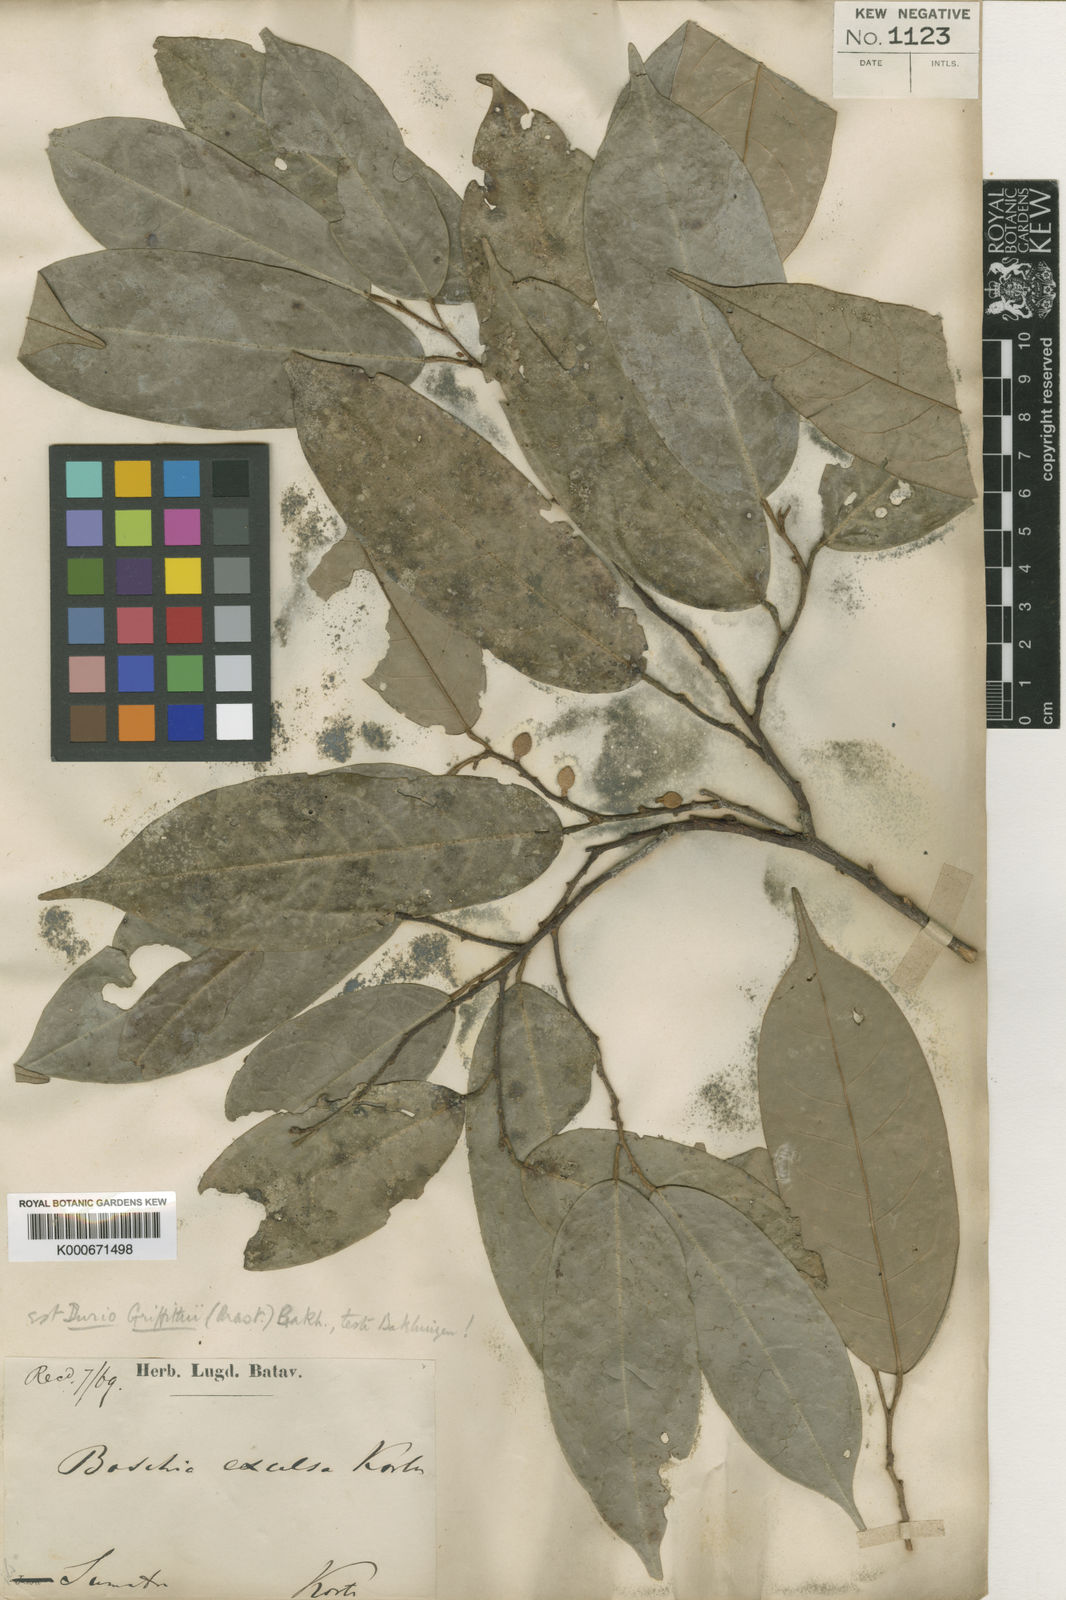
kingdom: Plantae
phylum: Tracheophyta
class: Magnoliopsida
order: Malvales
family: Malvaceae
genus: Boschia
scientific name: Boschia griffithii
